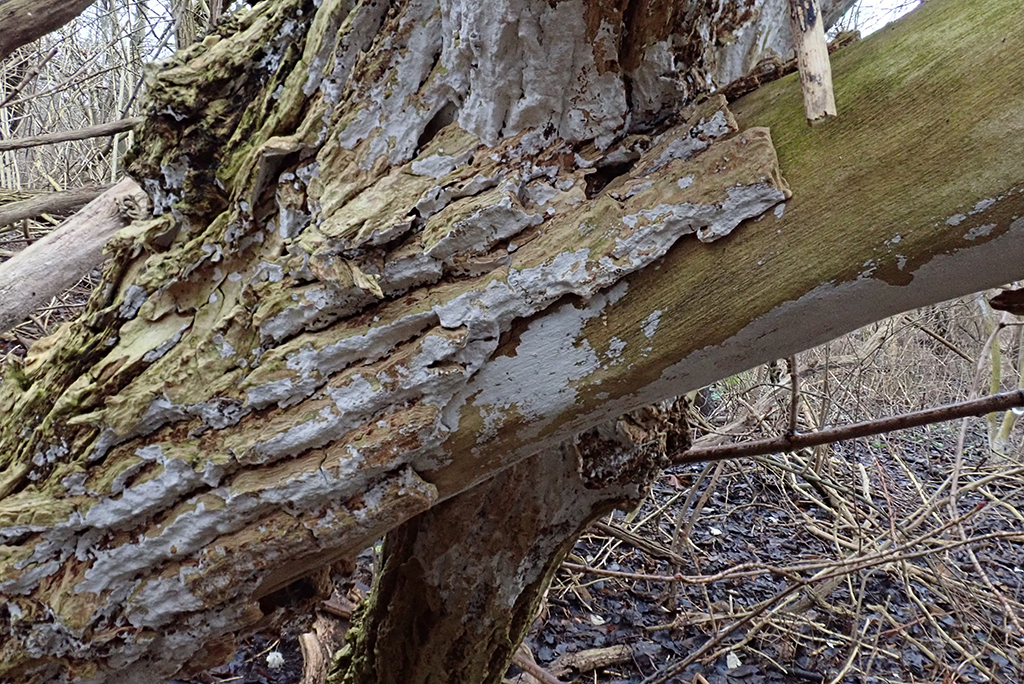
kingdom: Fungi
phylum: Basidiomycota
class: Agaricomycetes
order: Corticiales
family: Corticiaceae
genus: Lyomyces
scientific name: Lyomyces sambuci
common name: almindelig hyldehinde
